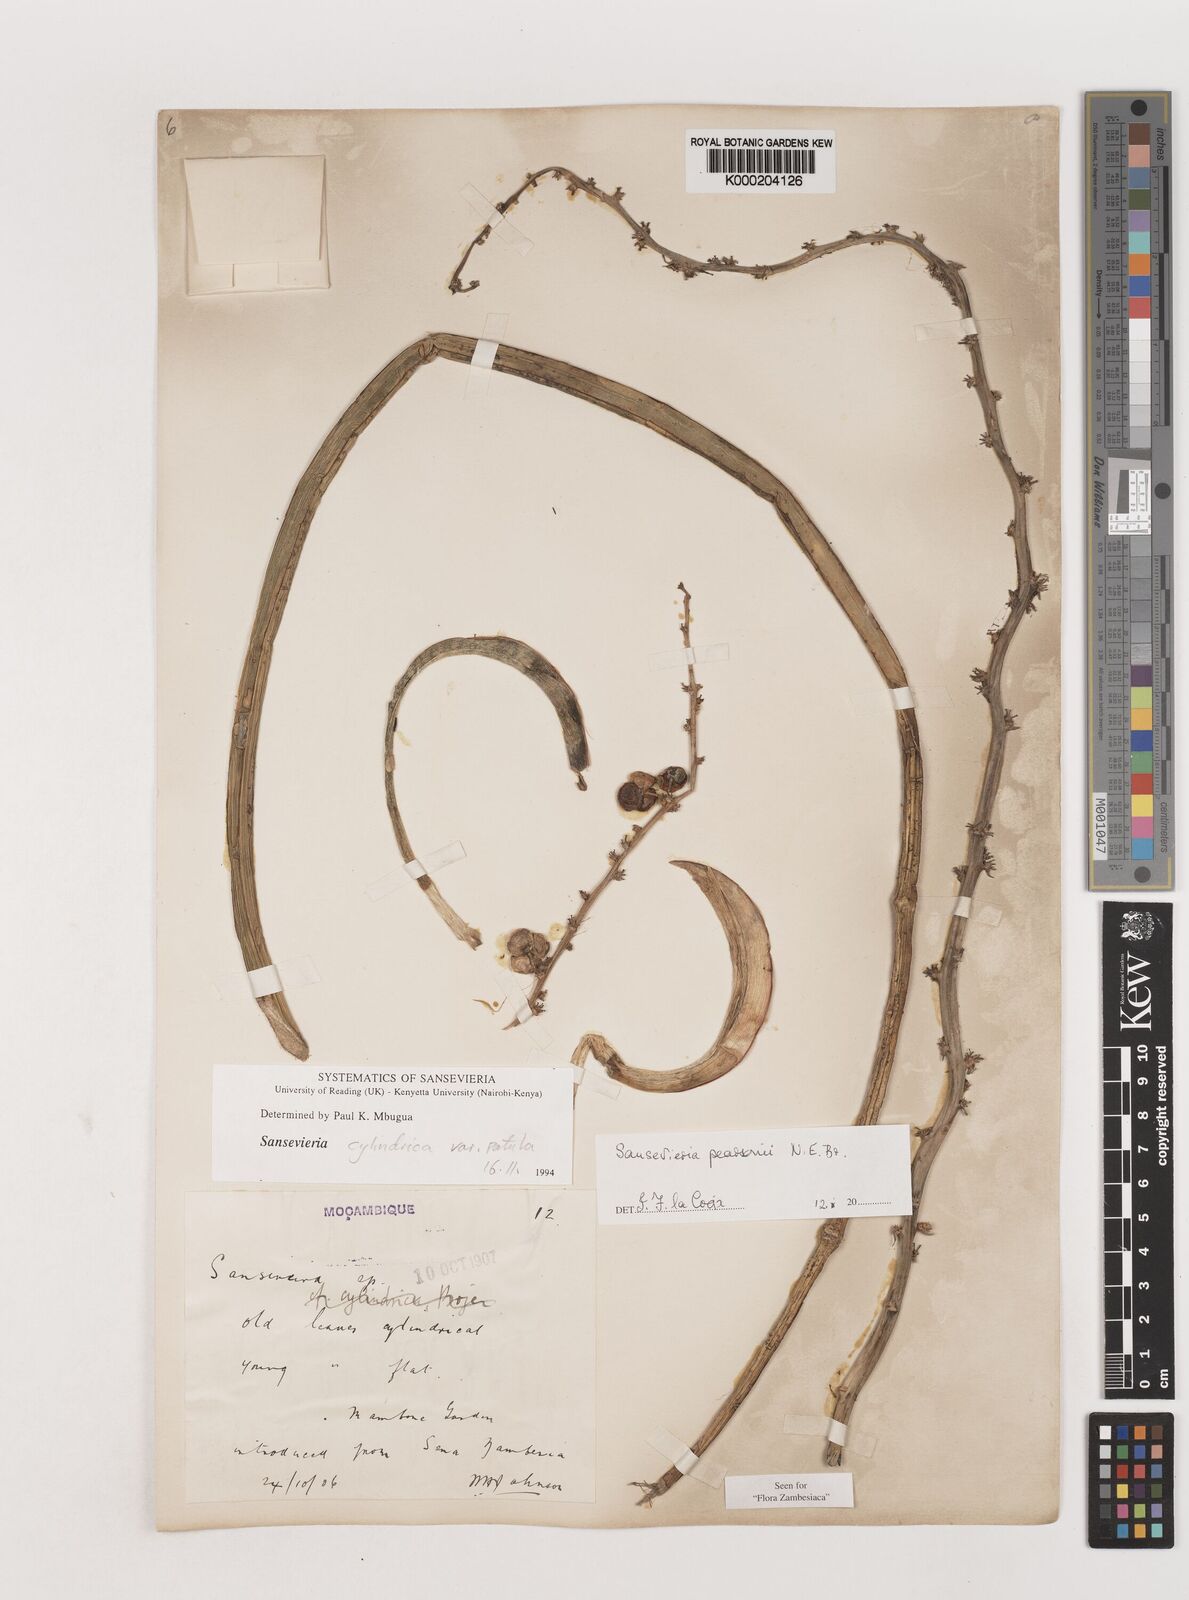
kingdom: Plantae
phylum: Tracheophyta
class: Liliopsida
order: Asparagales
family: Asparagaceae
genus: Dracaena
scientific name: Dracaena pearsonii
